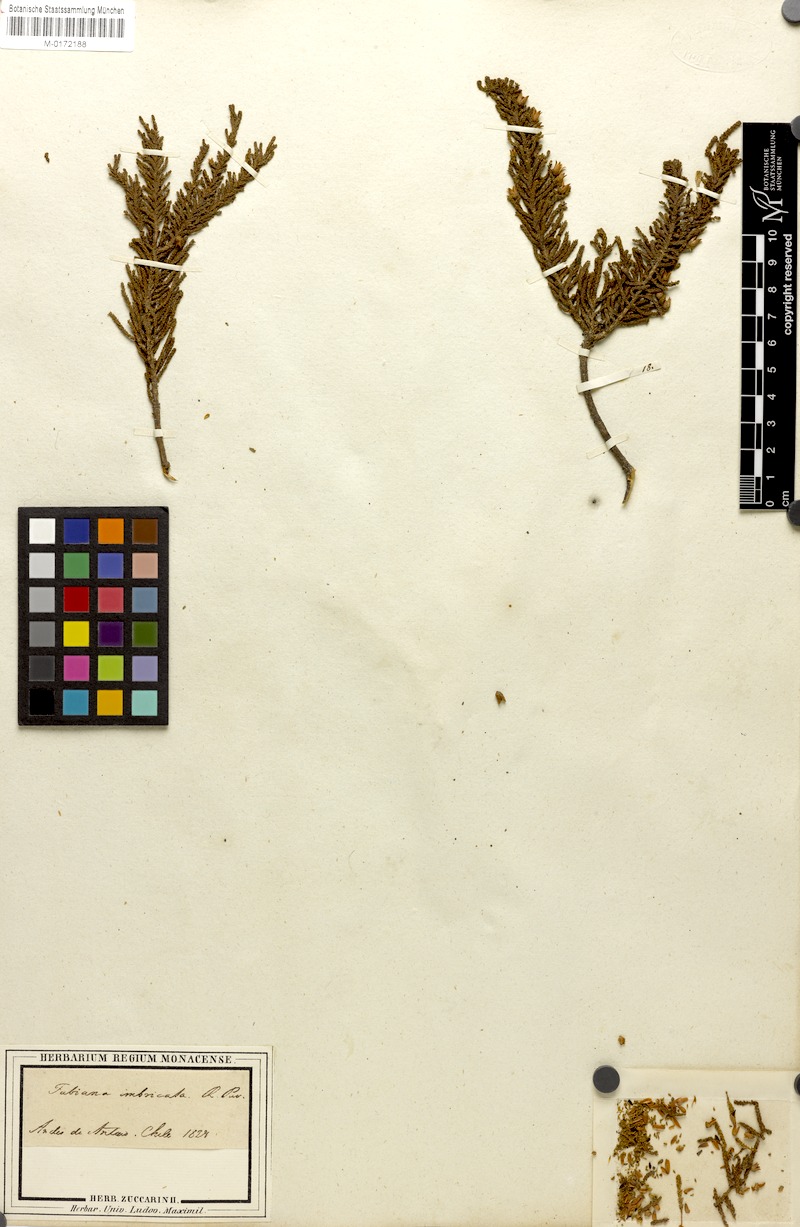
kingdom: Plantae
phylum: Tracheophyta
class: Magnoliopsida
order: Solanales
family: Solanaceae
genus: Fabiana
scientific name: Fabiana imbricata
